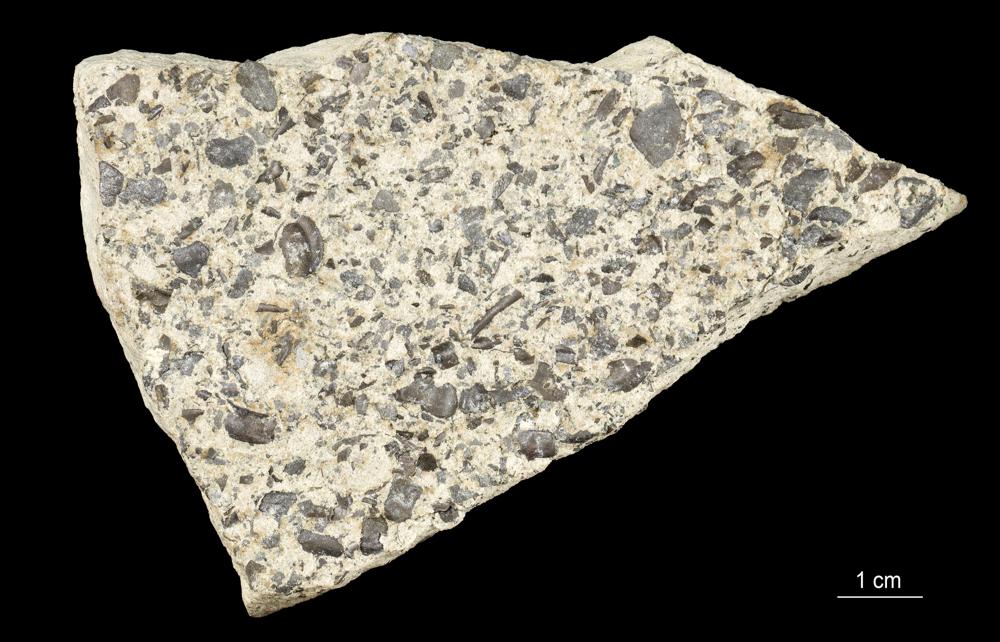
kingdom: Animalia
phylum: Brachiopoda
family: Paterinidae
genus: Mickwitzia
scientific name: Mickwitzia
